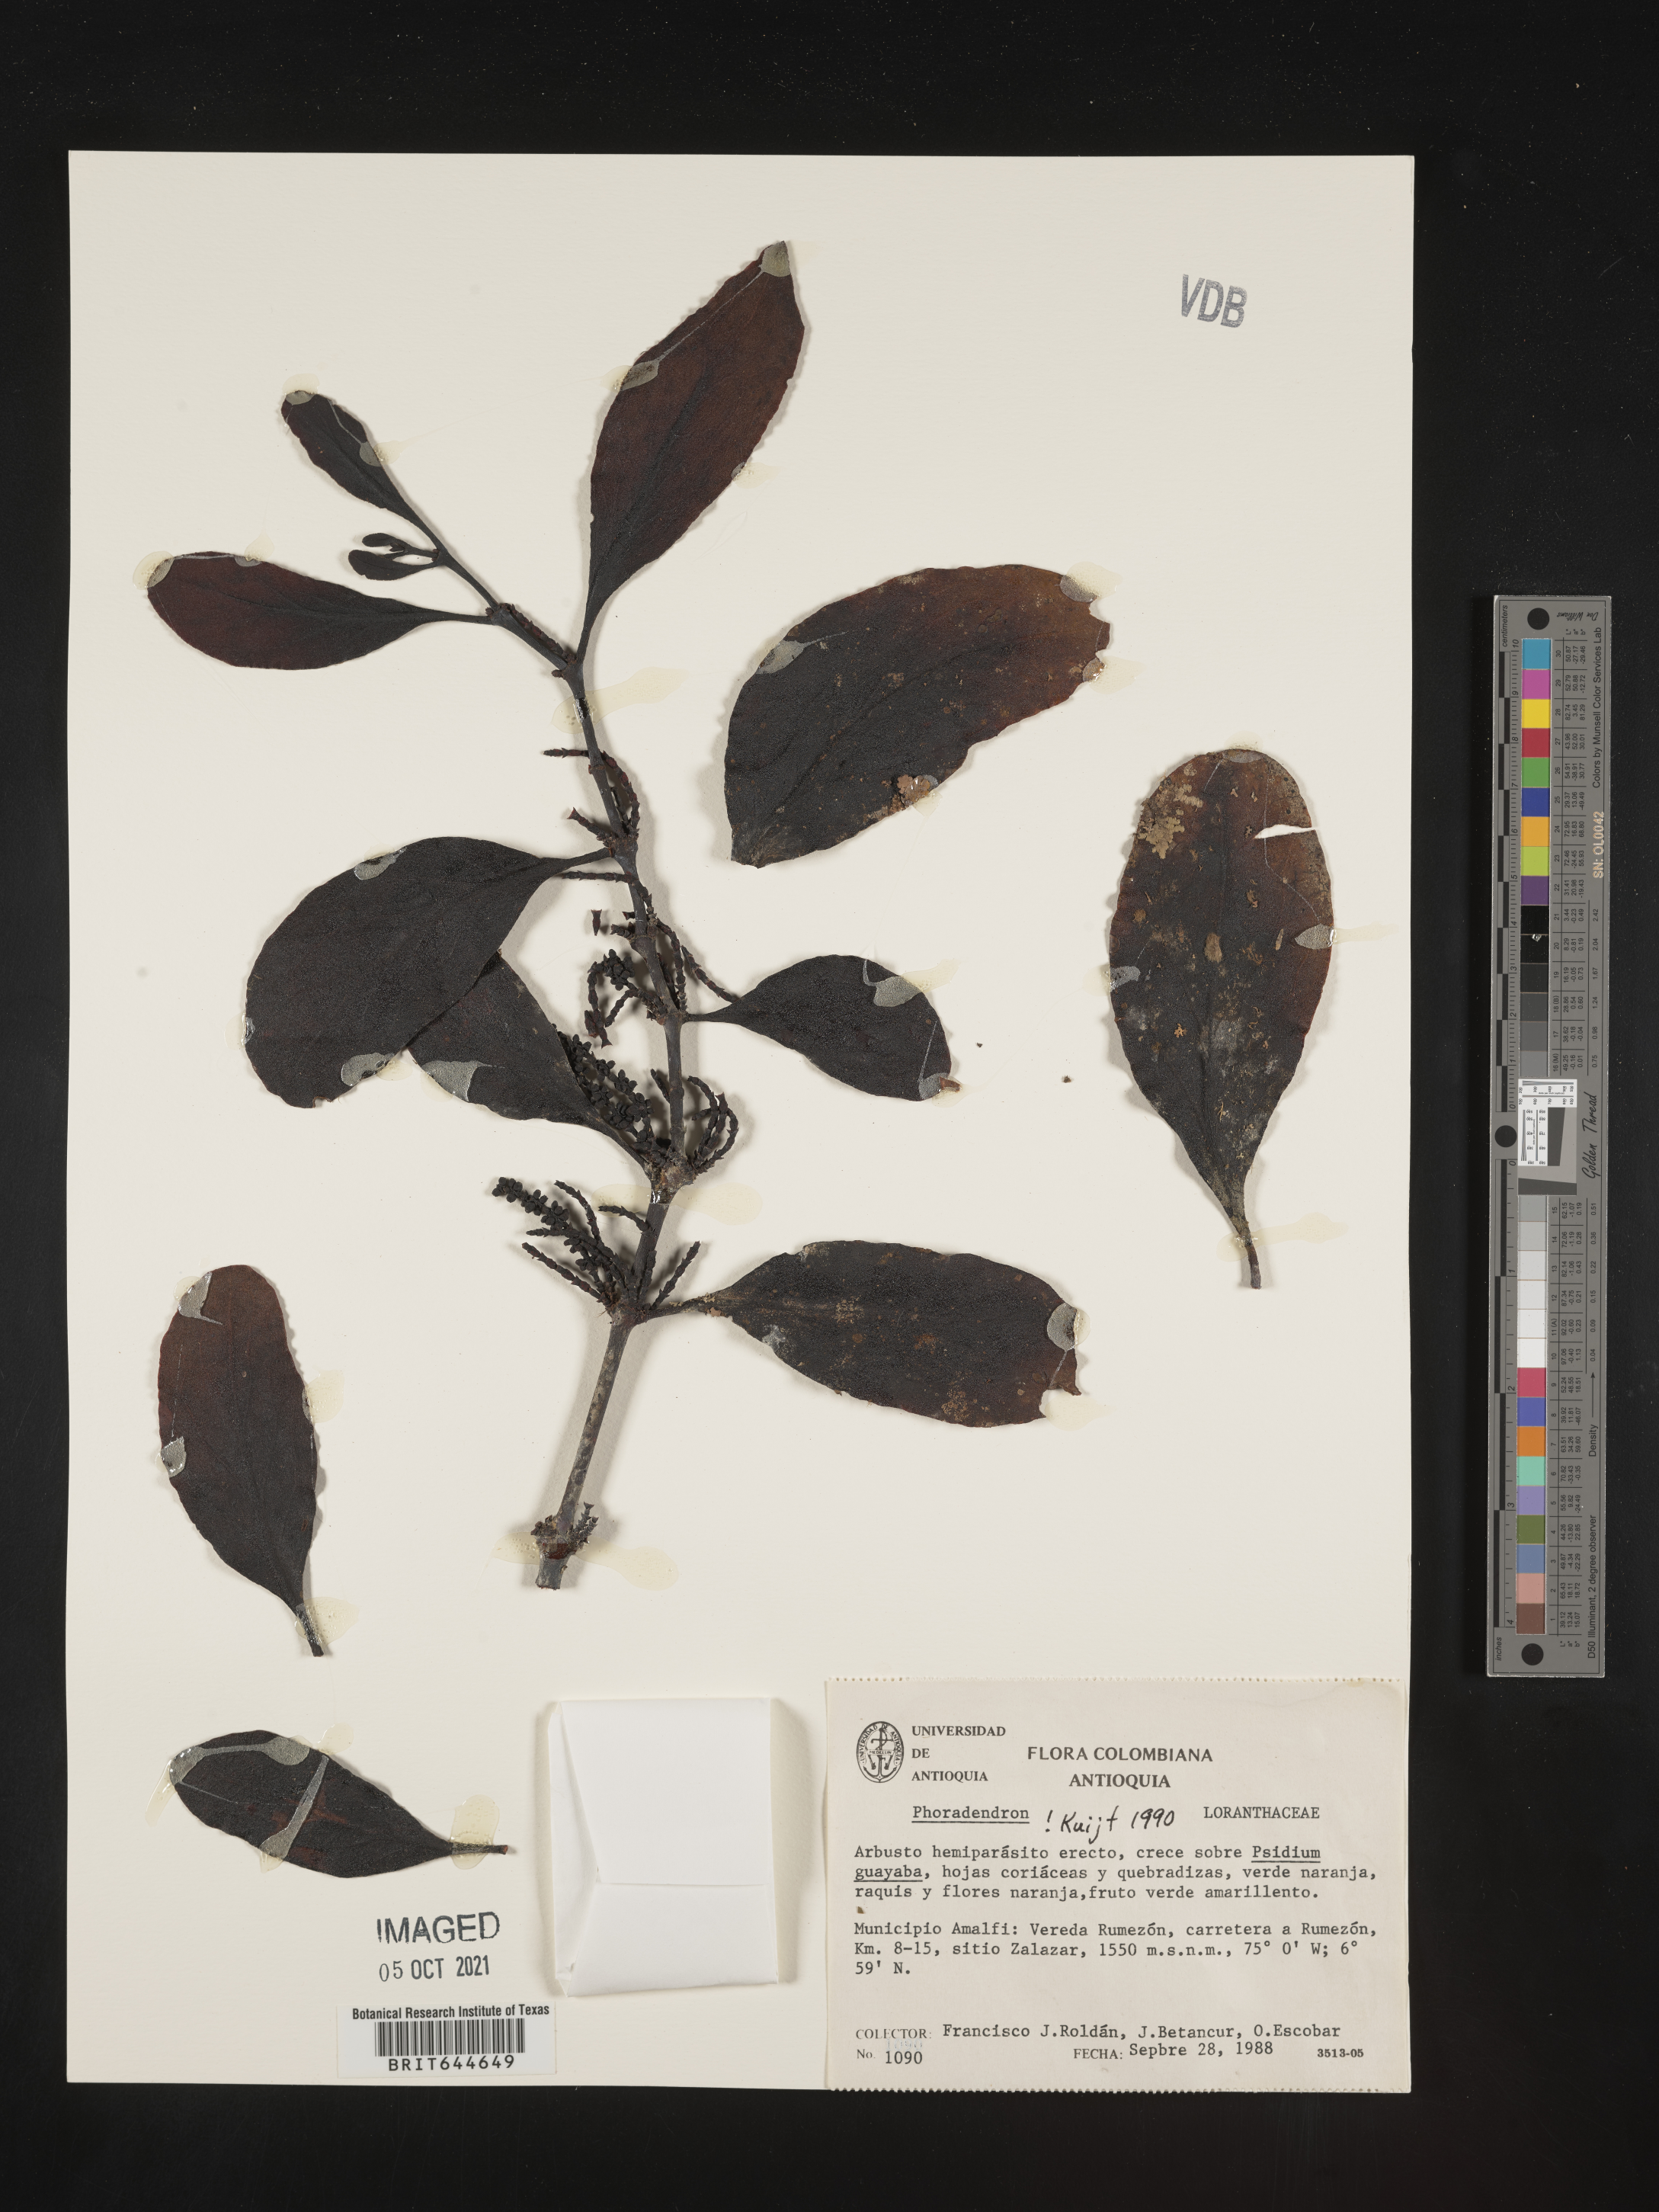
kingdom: Plantae
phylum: Tracheophyta
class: Magnoliopsida
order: Santalales
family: Viscaceae
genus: Phoradendron
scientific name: Phoradendron
